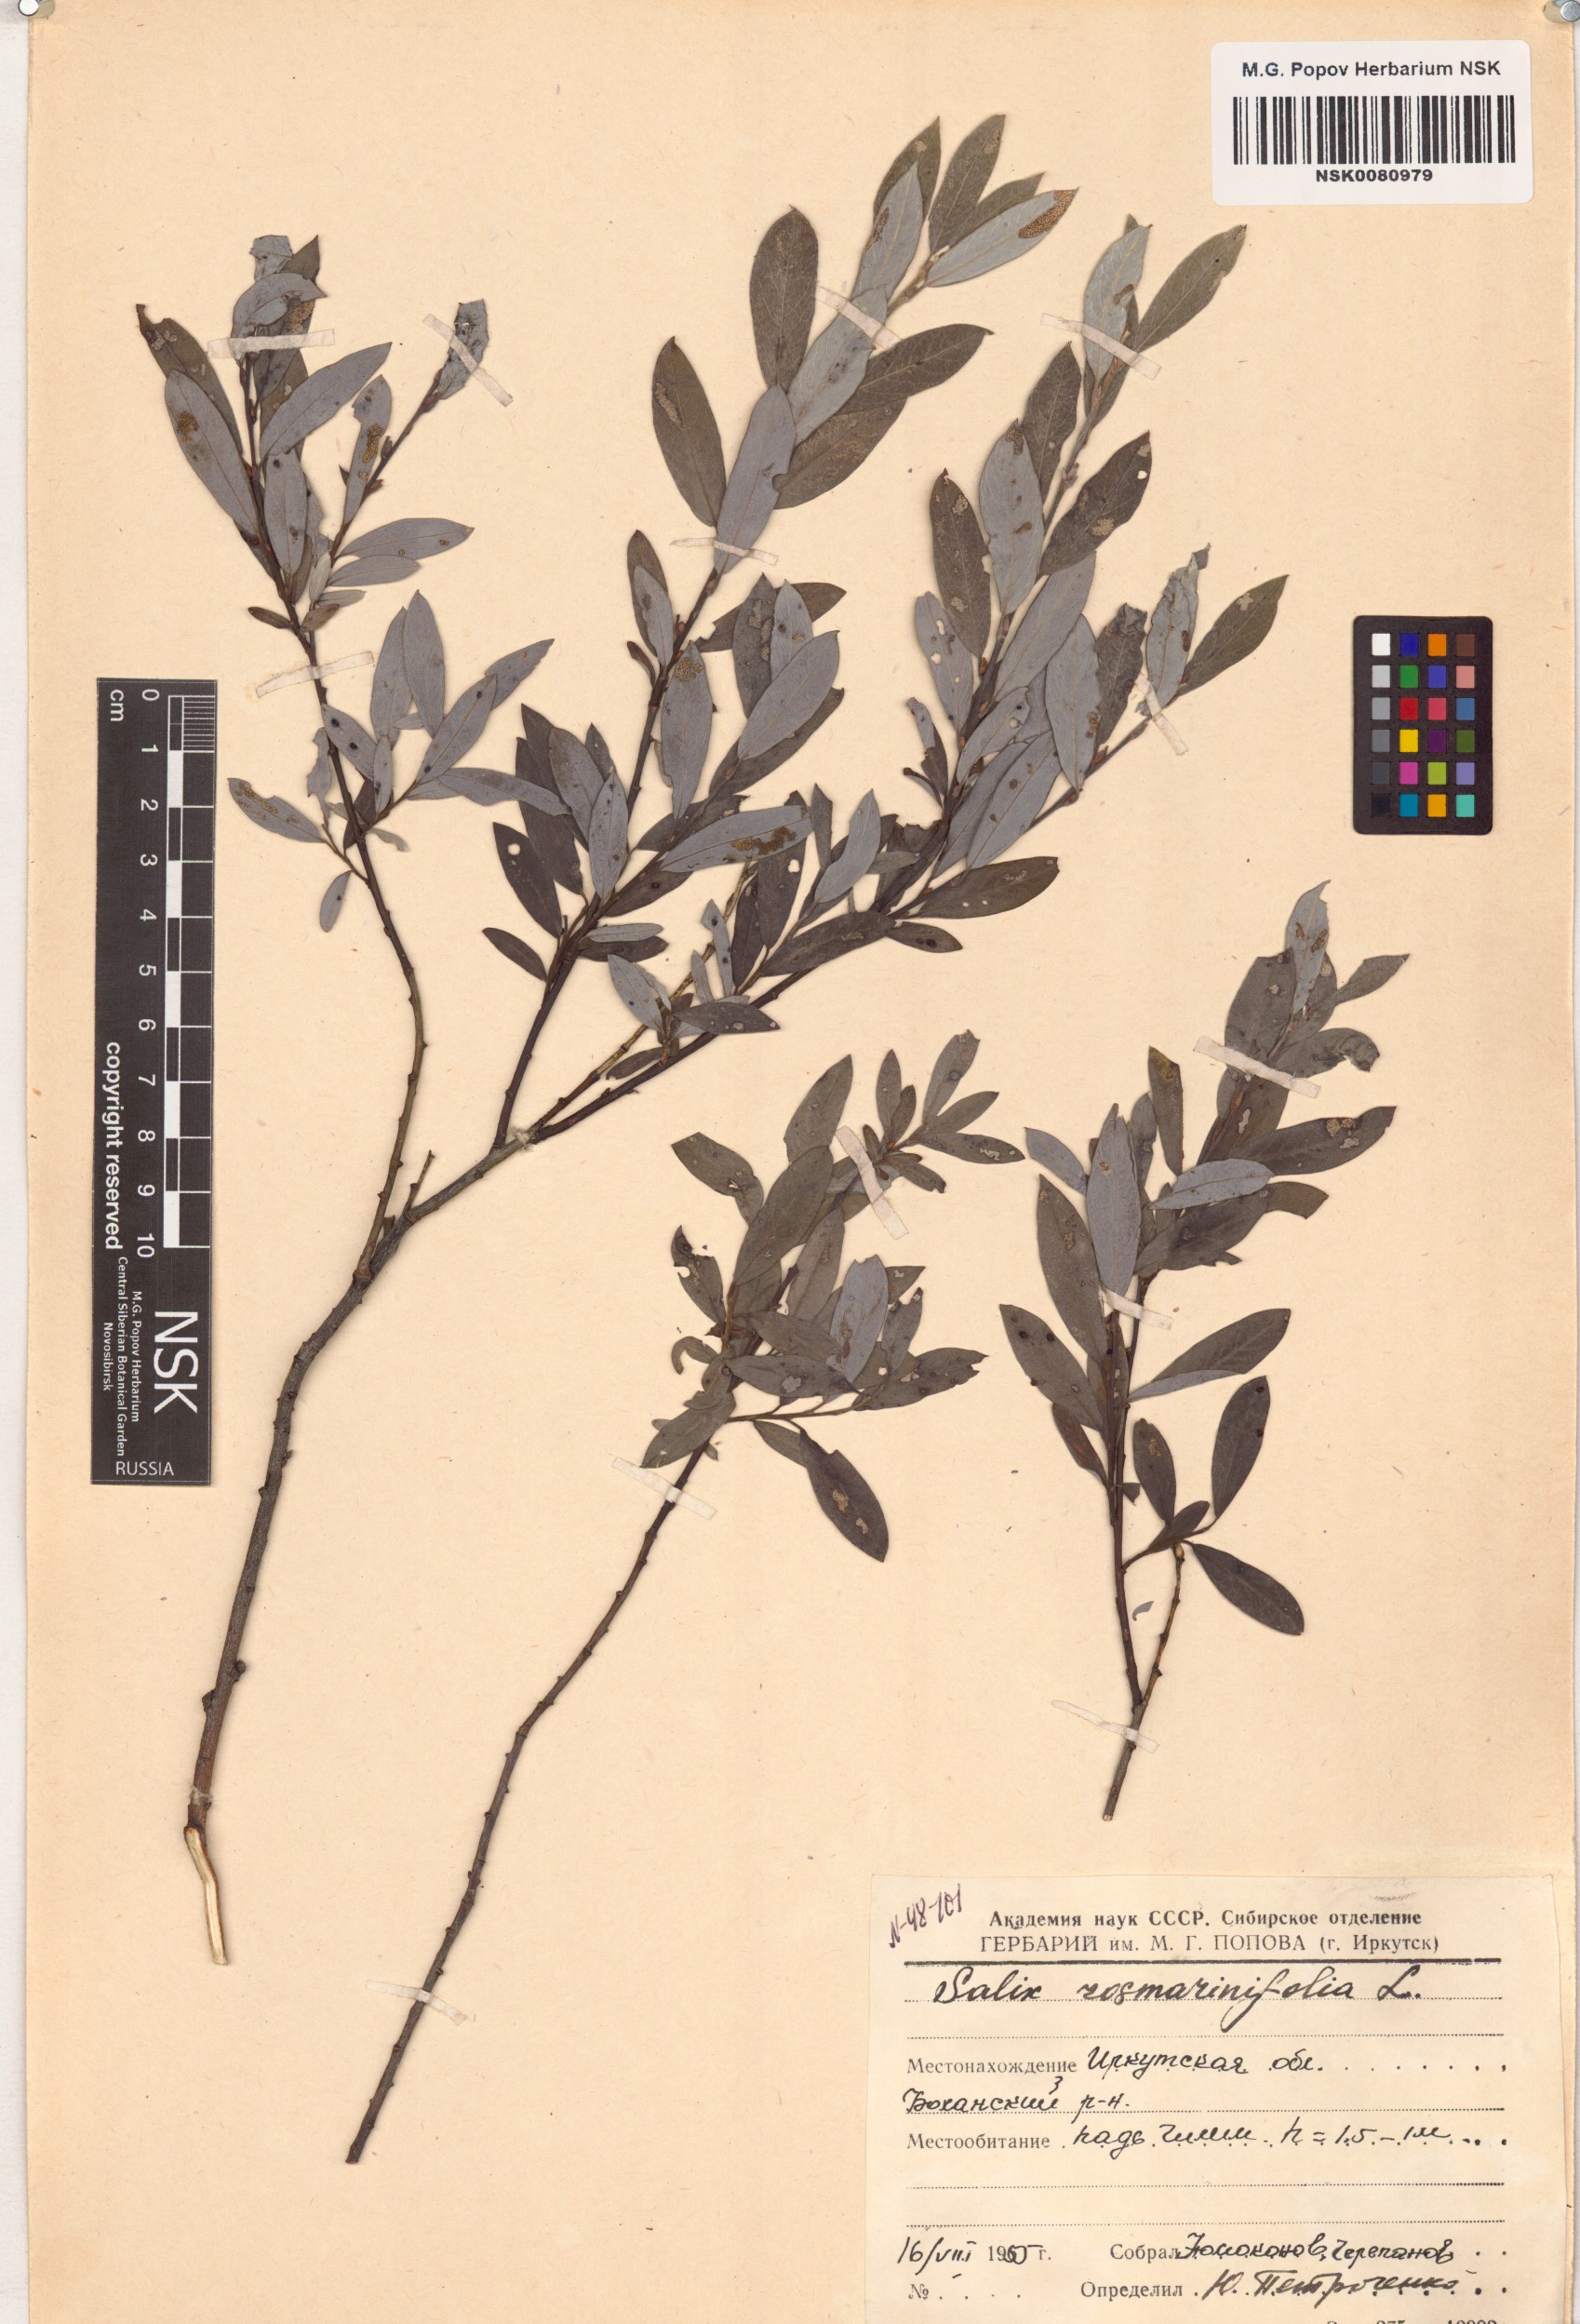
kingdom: Plantae
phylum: Tracheophyta
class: Magnoliopsida
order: Malpighiales
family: Salicaceae
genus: Salix
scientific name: Salix rosmarinifolia
